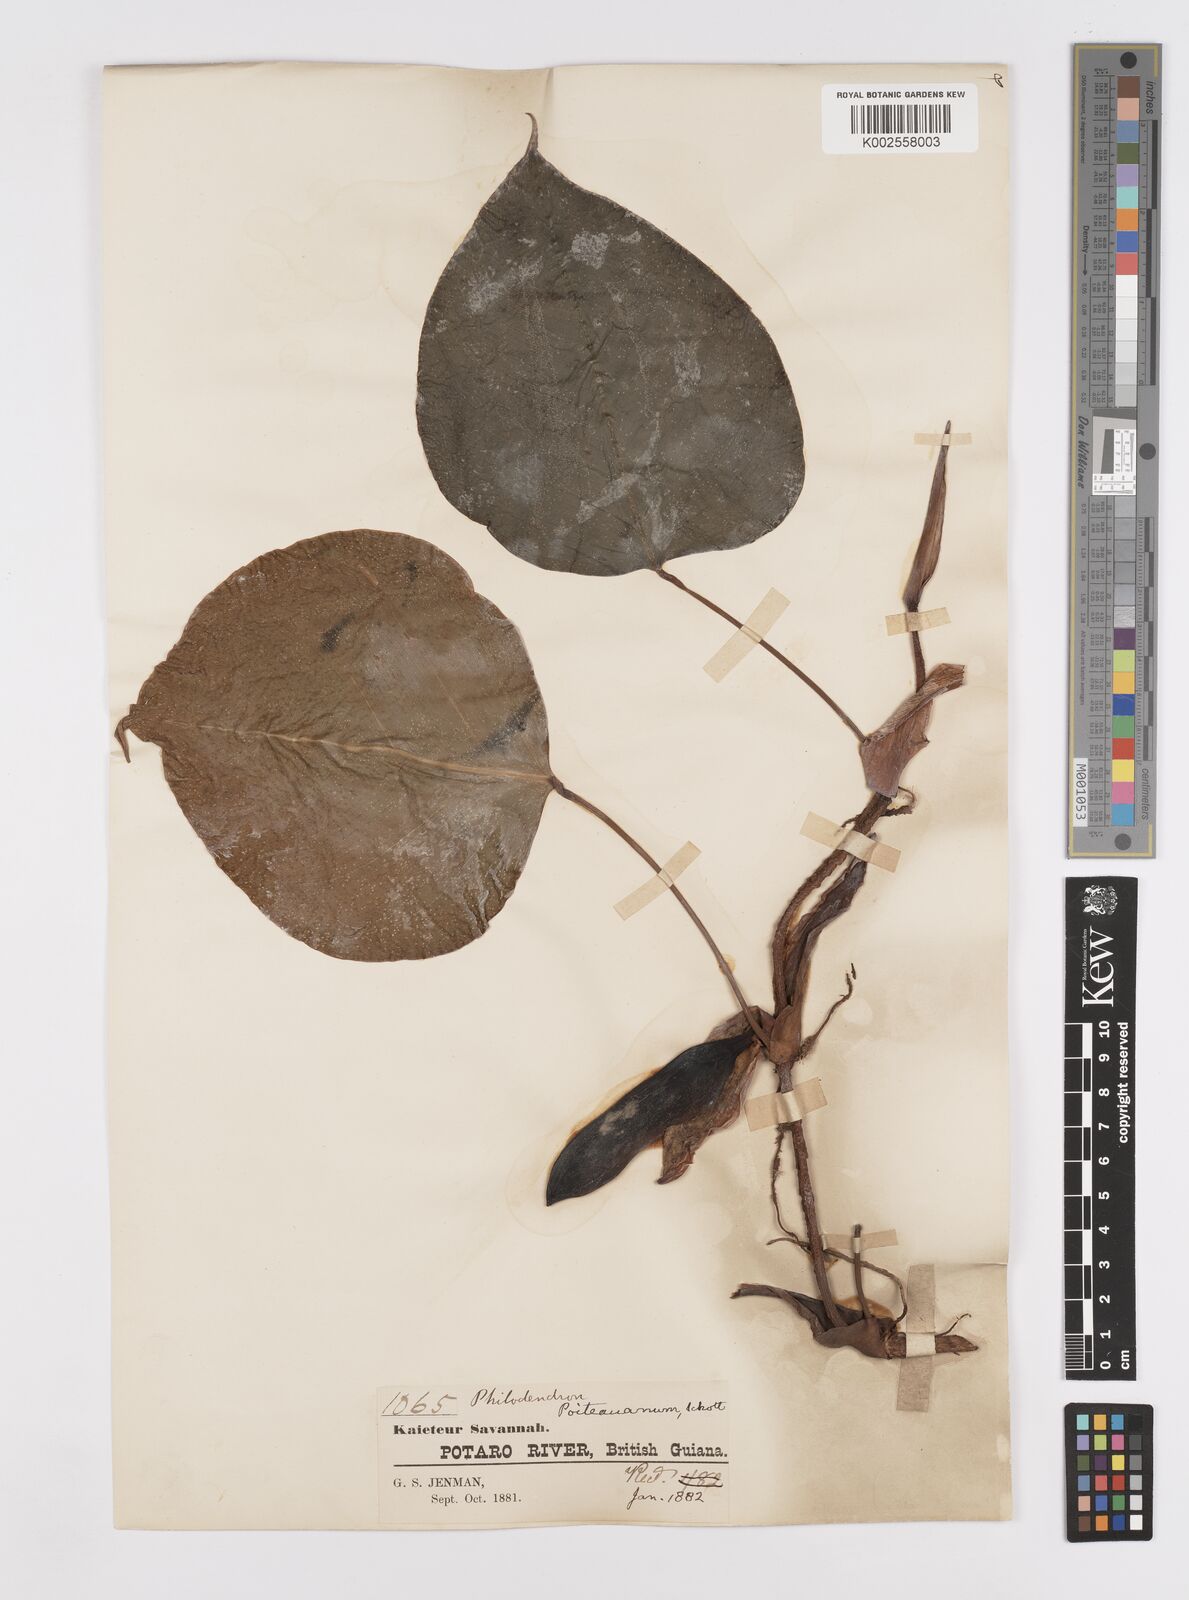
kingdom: Plantae
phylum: Tracheophyta
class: Liliopsida
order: Alismatales
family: Araceae
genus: Philodendron
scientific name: Philodendron ecordatum
